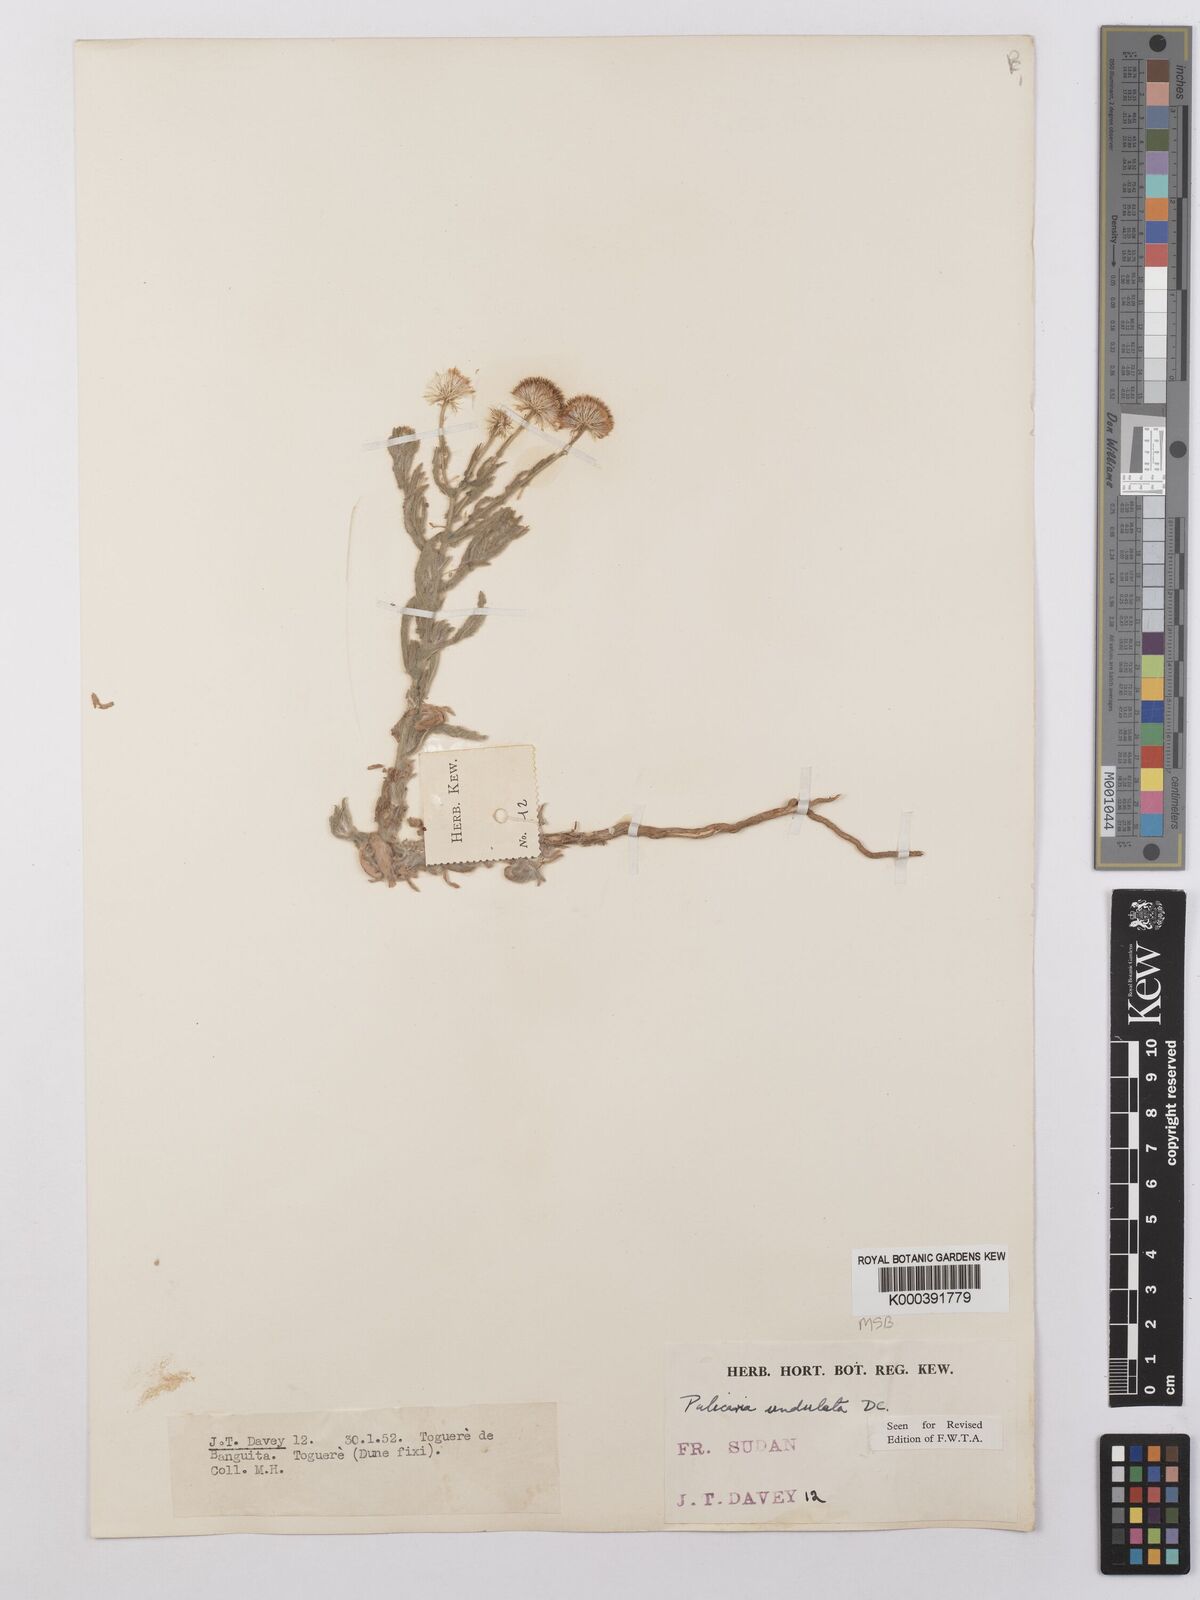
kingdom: Plantae
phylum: Tracheophyta
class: Magnoliopsida
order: Asterales
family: Asteraceae
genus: Pulicaria
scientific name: Pulicaria undulata
